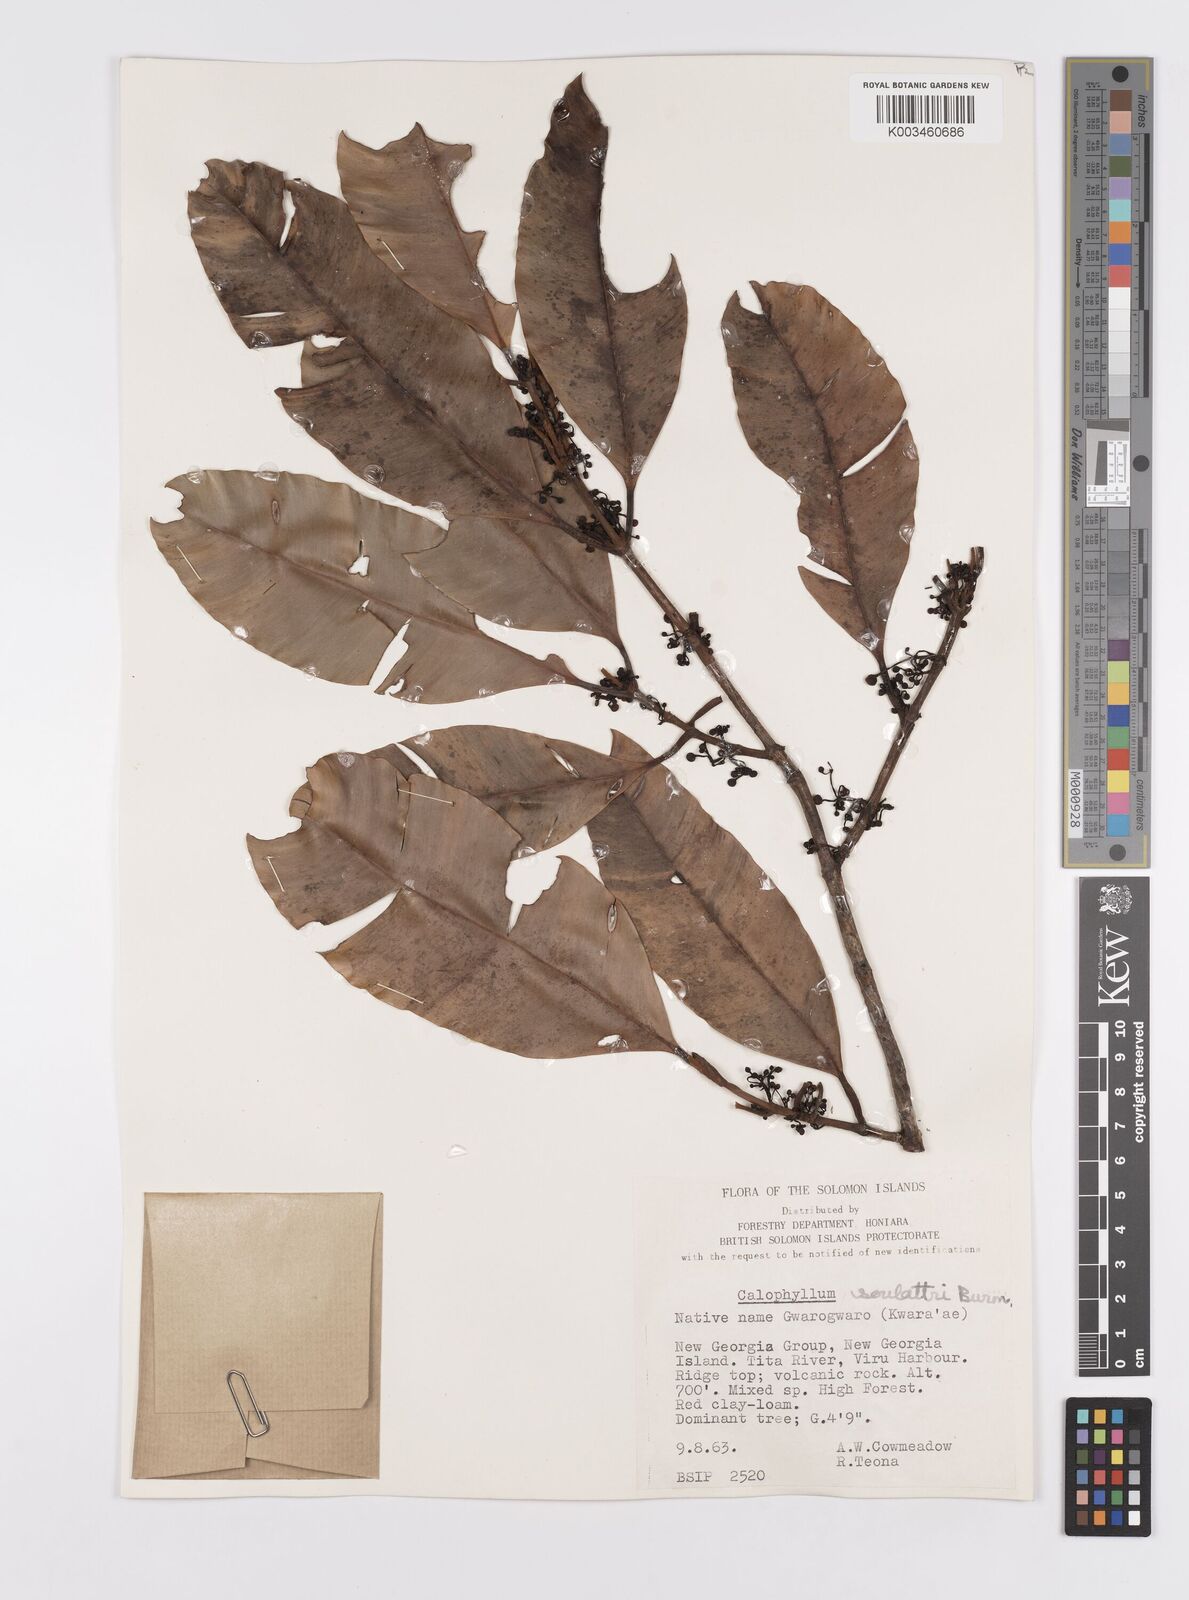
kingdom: Plantae
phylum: Tracheophyta
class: Magnoliopsida
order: Malpighiales
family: Calophyllaceae
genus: Calophyllum
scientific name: Calophyllum soulattri
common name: Bitangoor boonot
